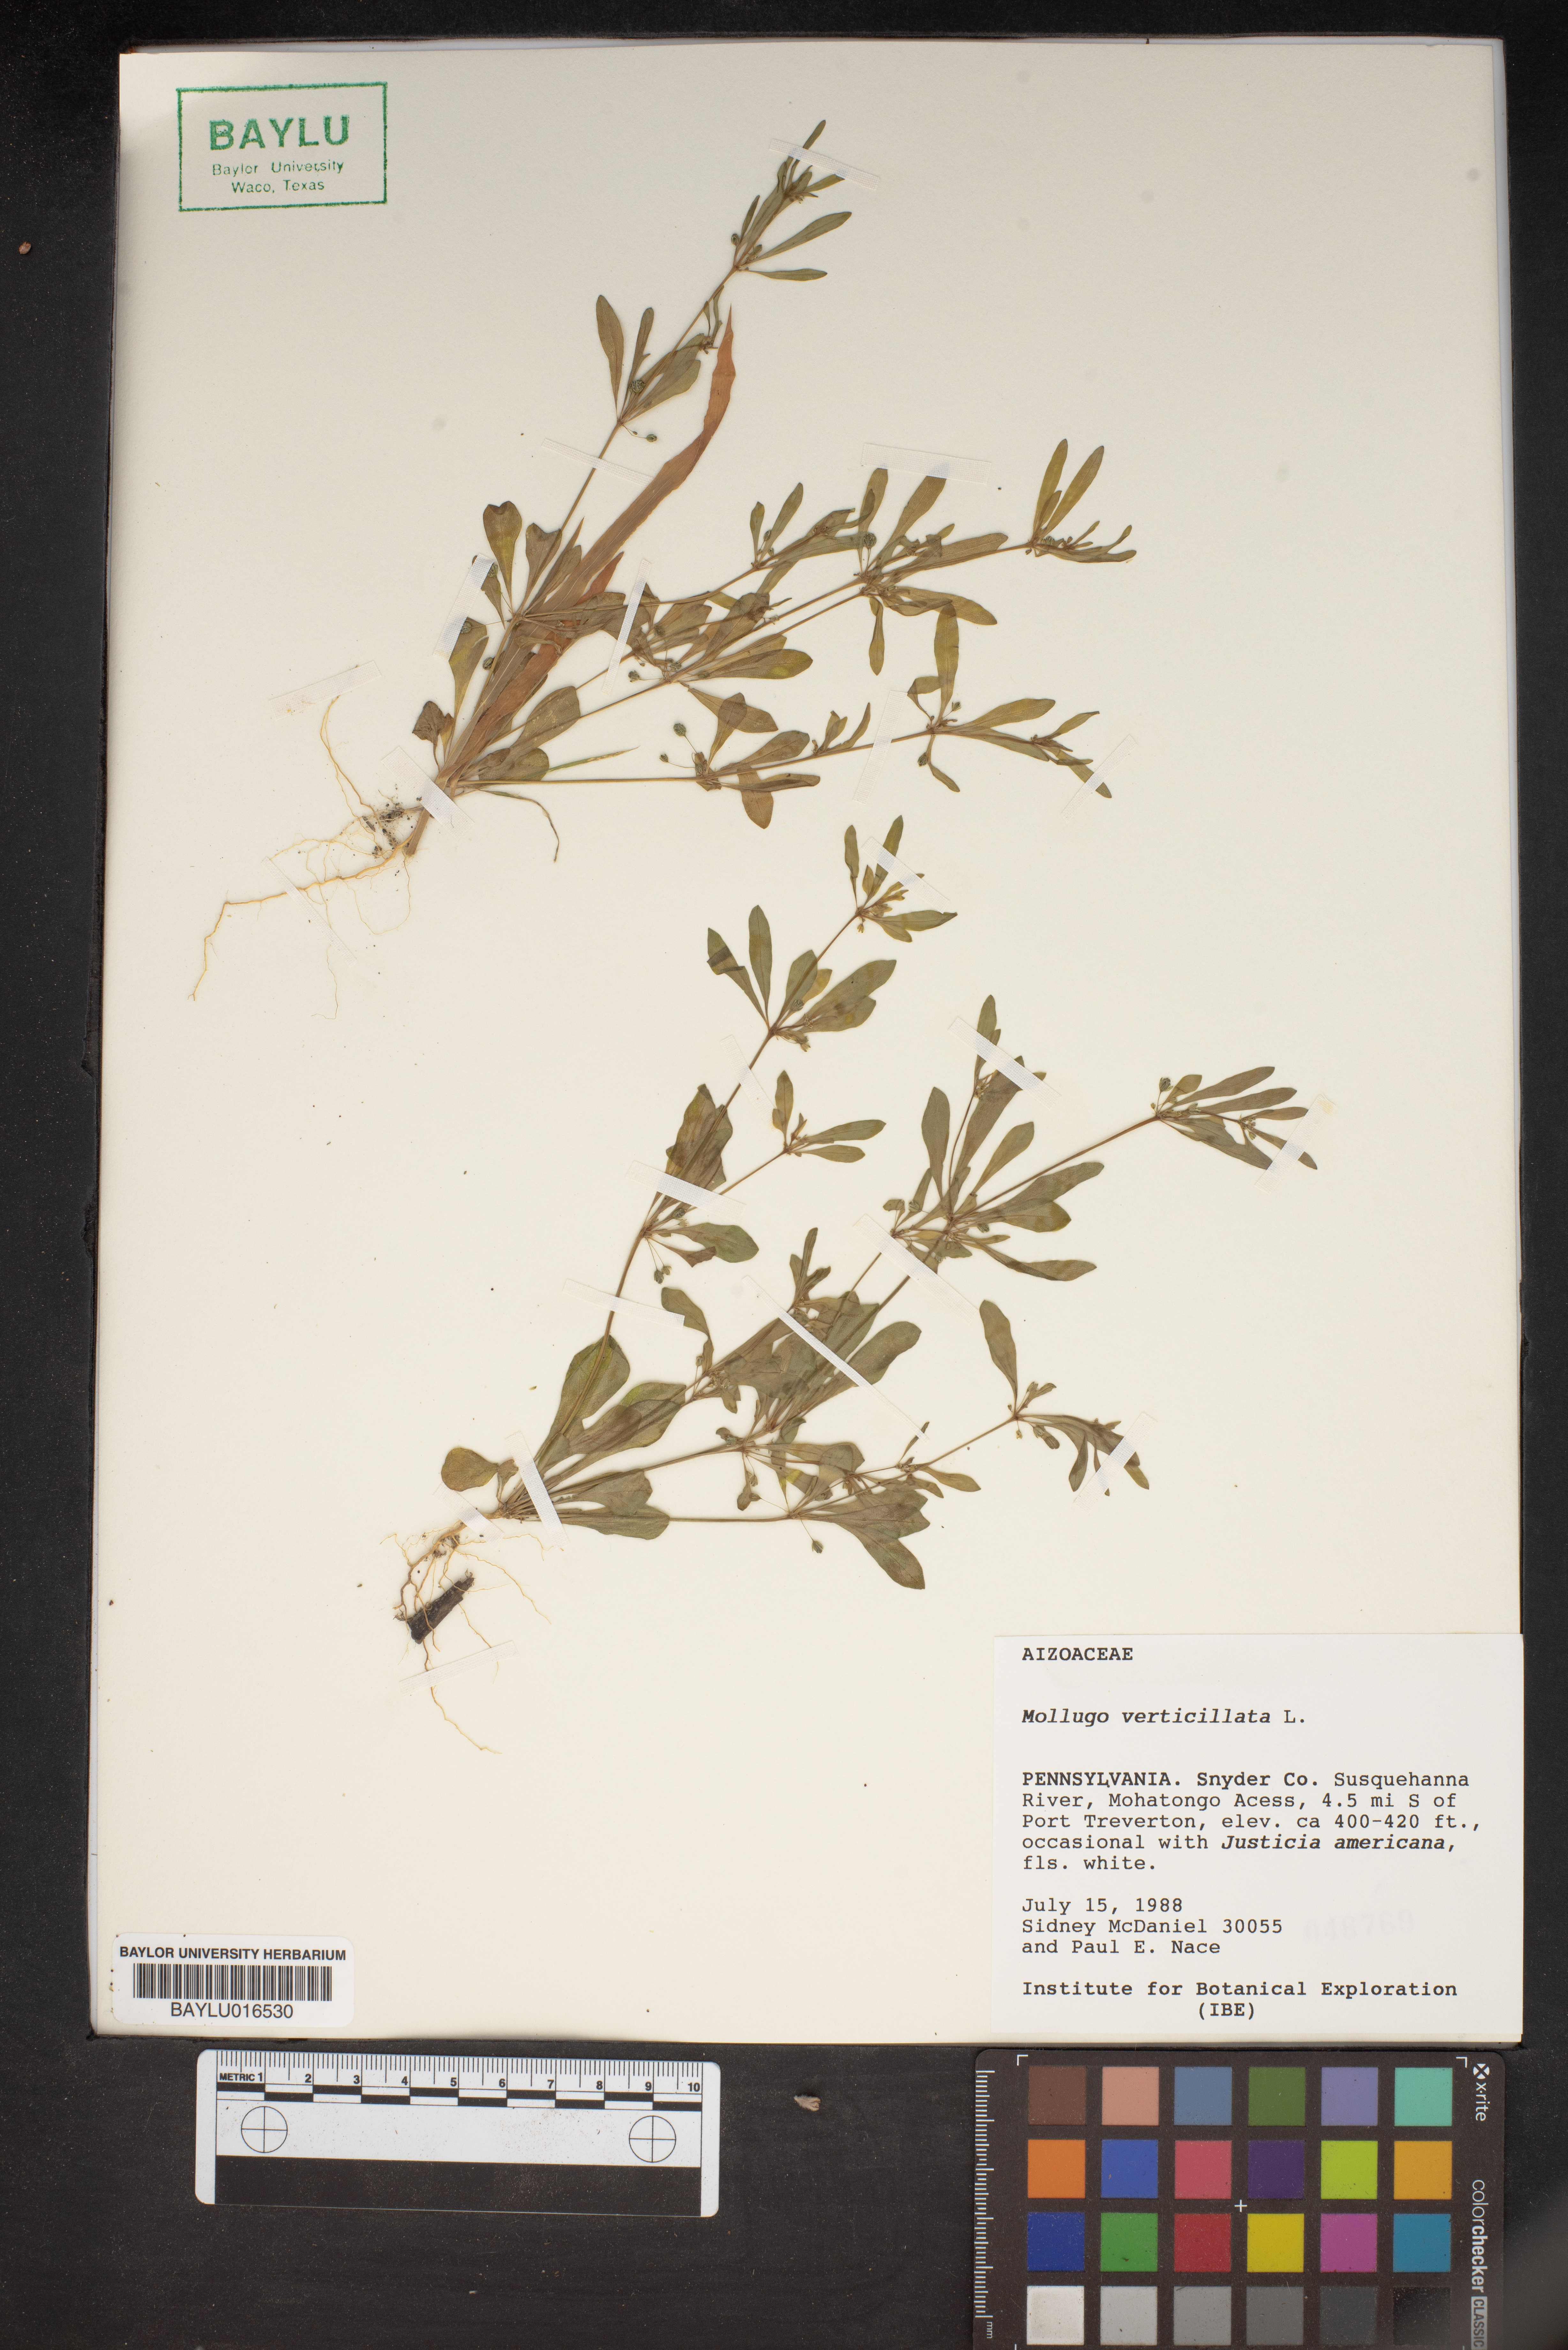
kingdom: Plantae
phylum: Tracheophyta
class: Magnoliopsida
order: Caryophyllales
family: Molluginaceae
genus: Mollugo
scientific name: Mollugo verticillata
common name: Green carpetweed
